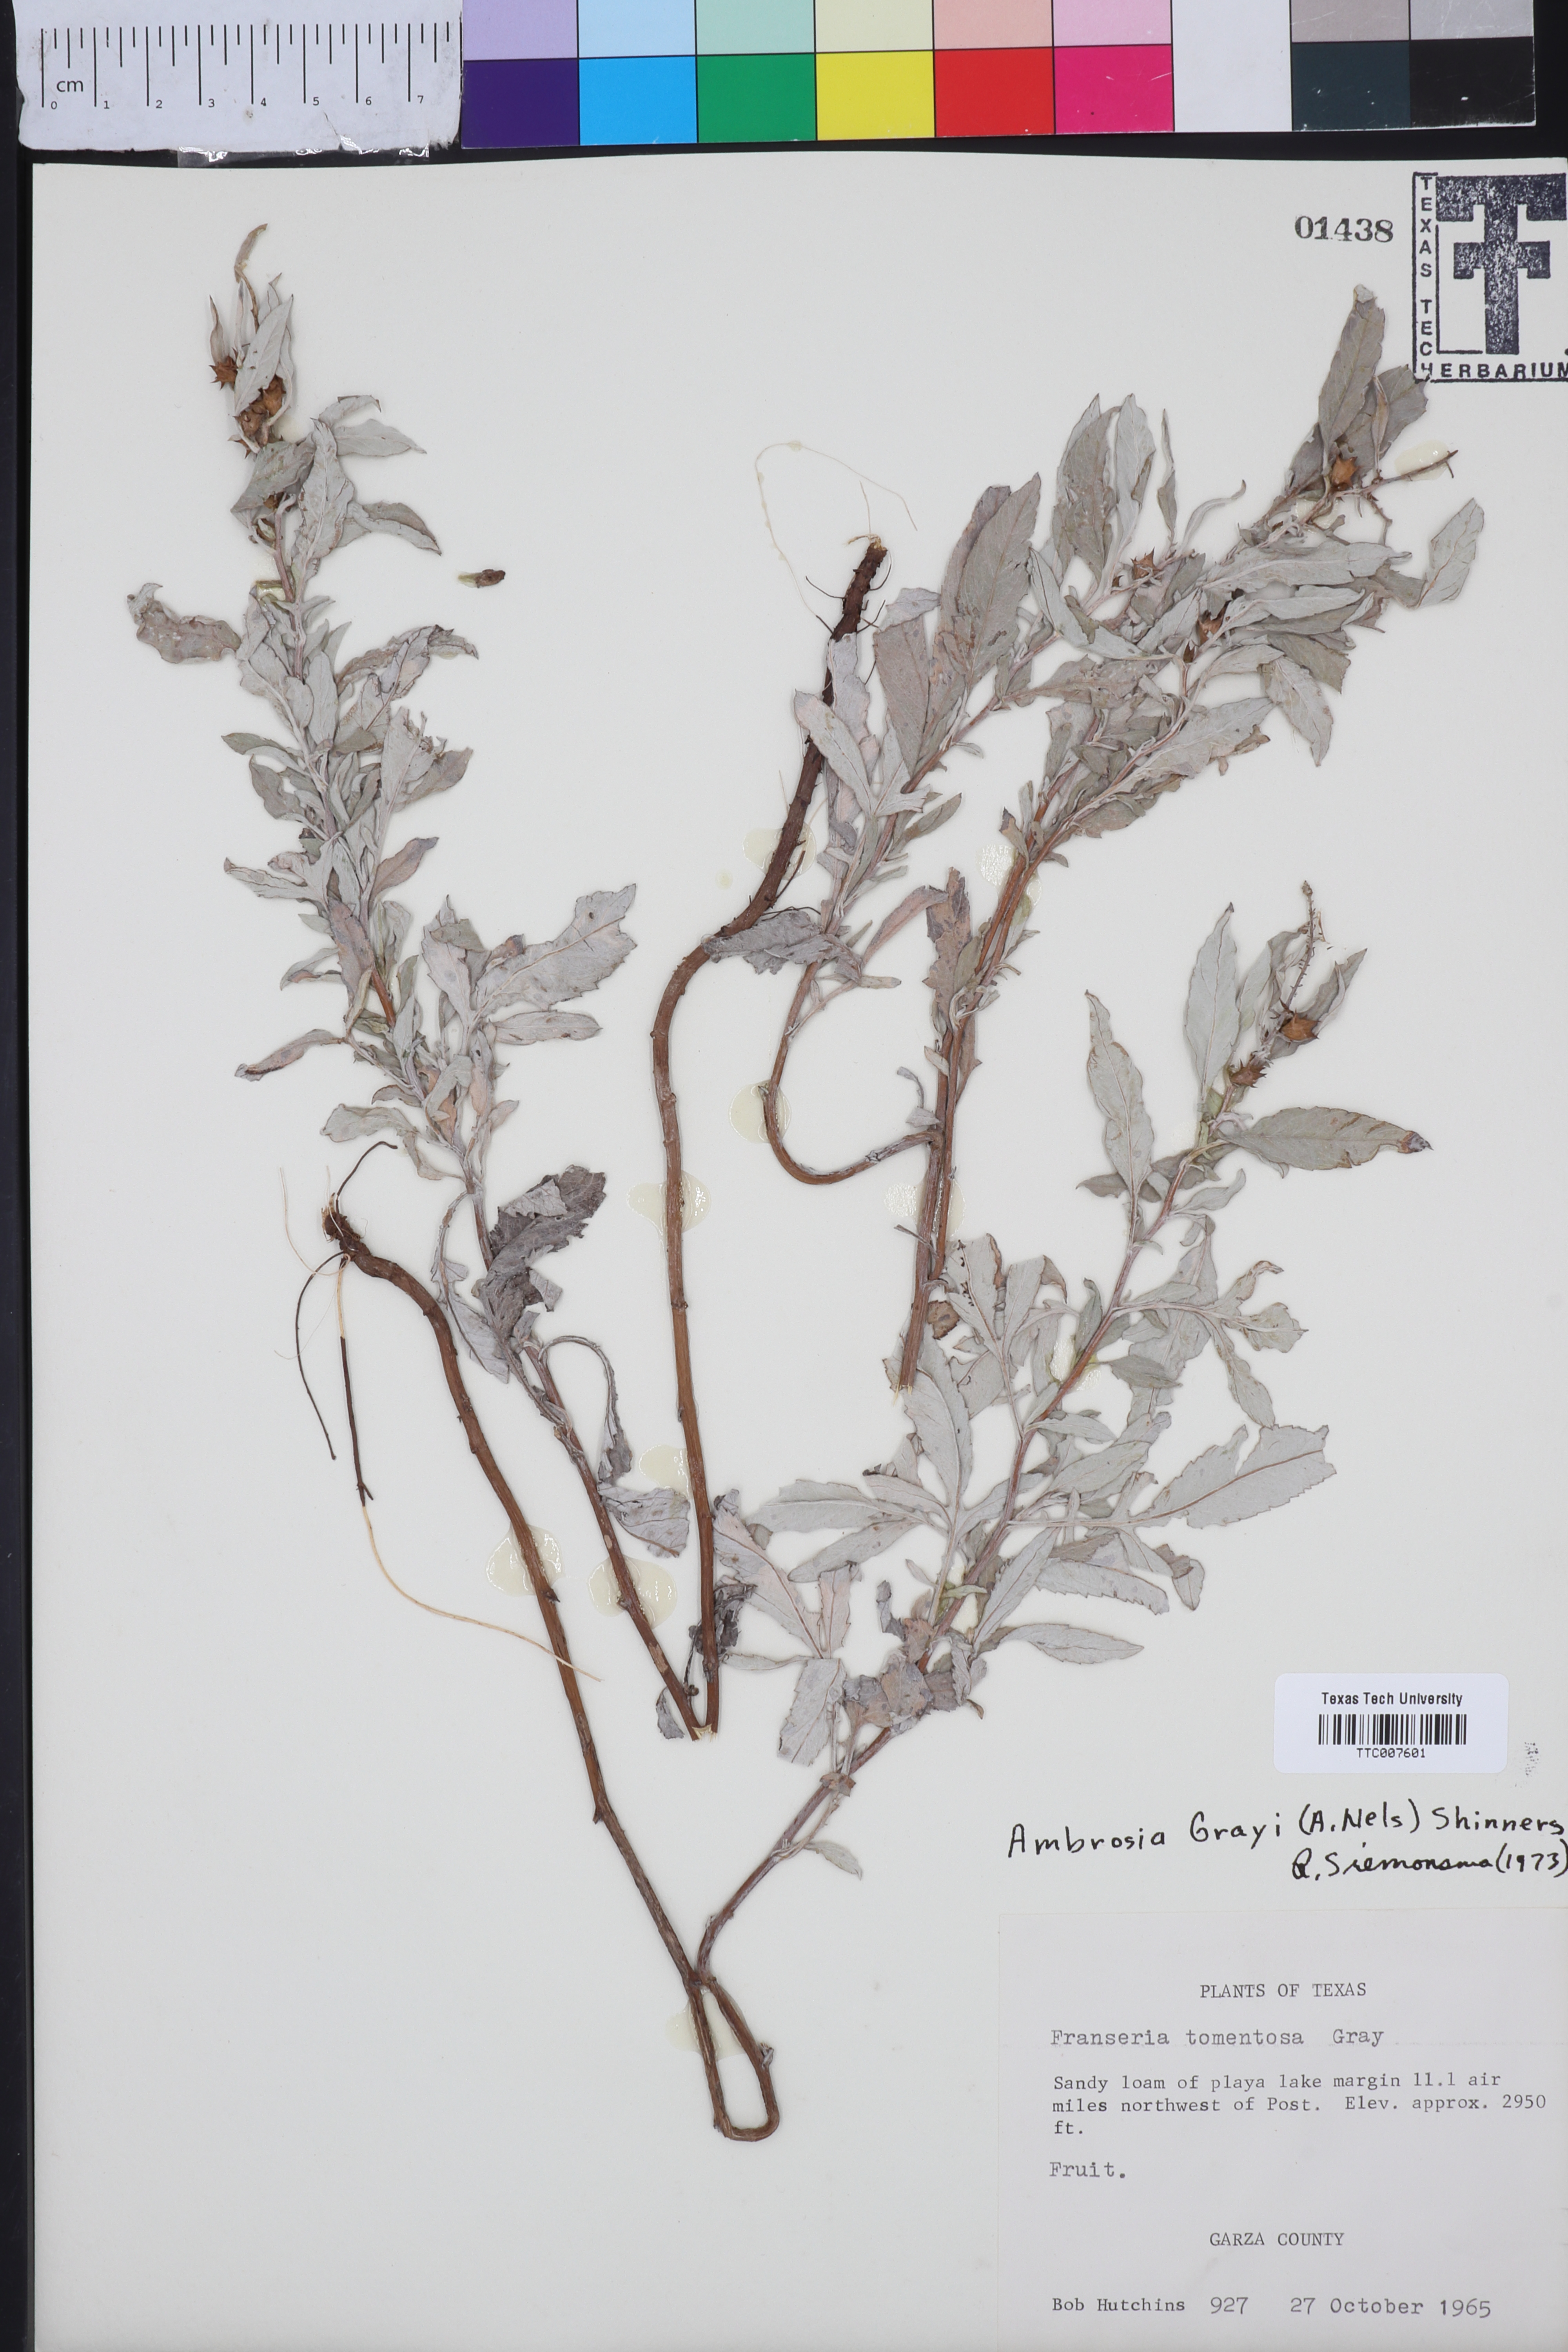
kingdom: Plantae
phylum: Tracheophyta
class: Magnoliopsida
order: Asterales
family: Asteraceae
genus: Ambrosia
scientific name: Ambrosia grayi
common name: Bur ragweed
